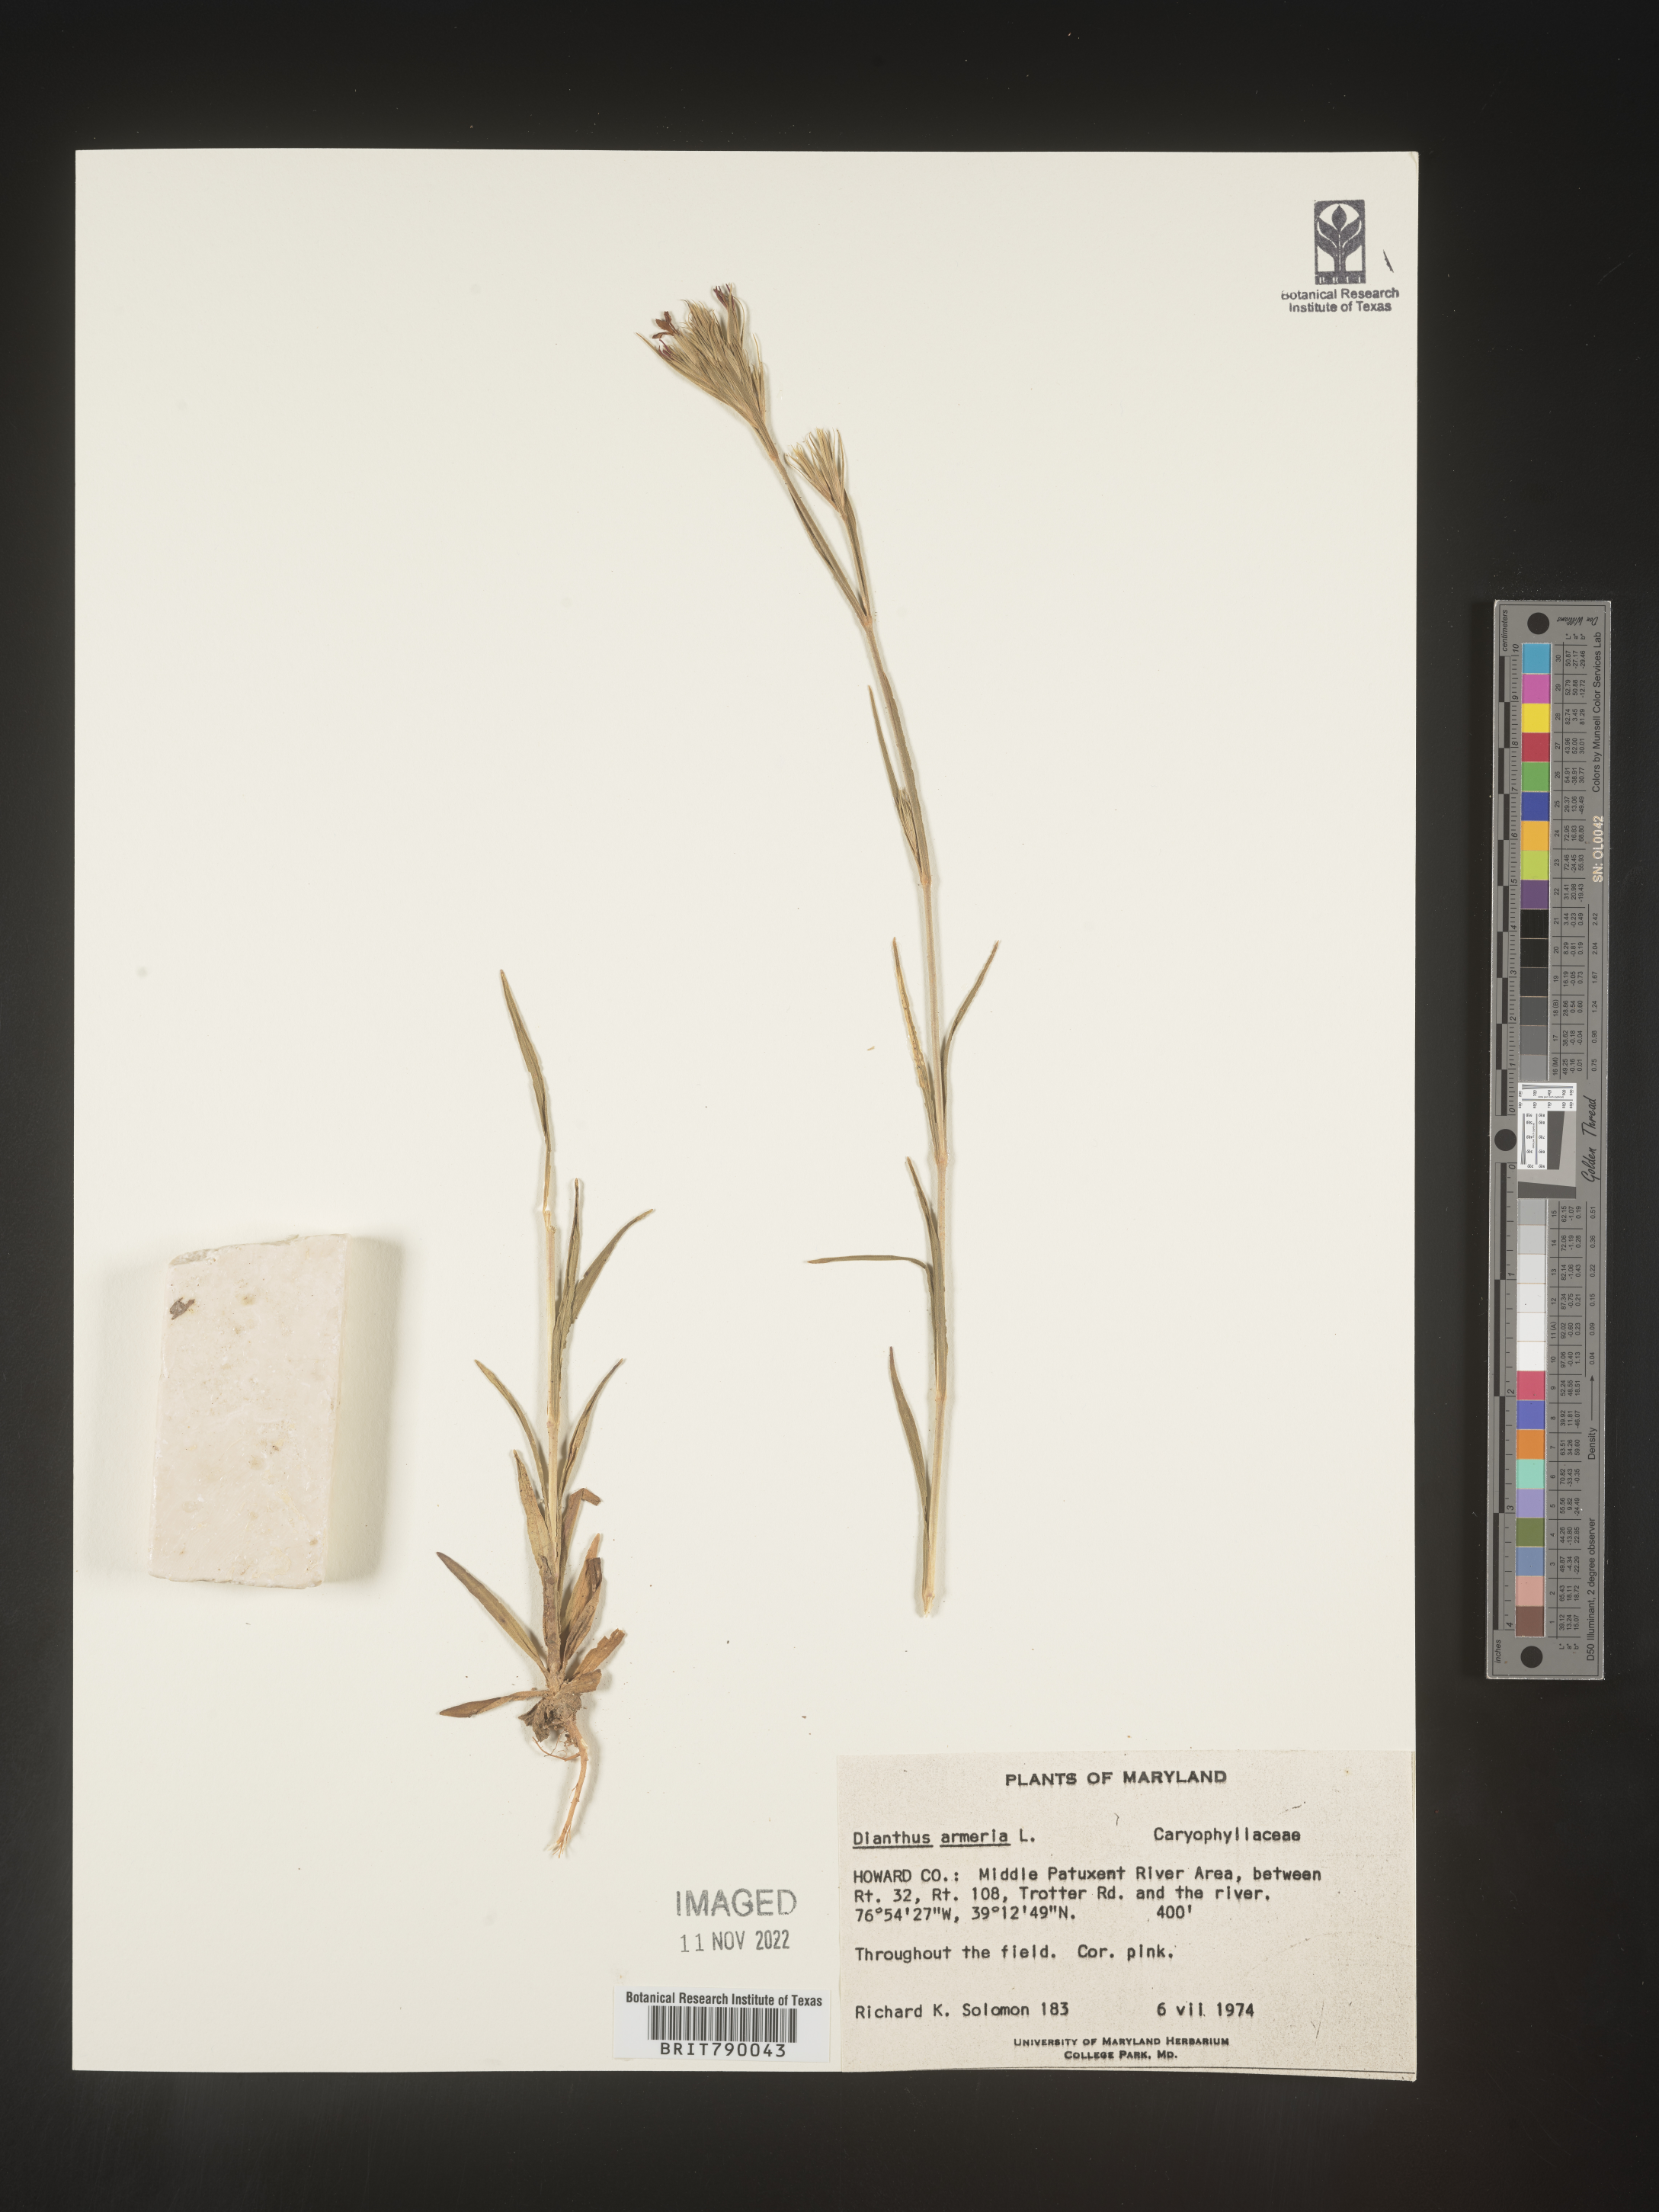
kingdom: Plantae
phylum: Tracheophyta
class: Magnoliopsida
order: Caryophyllales
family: Caryophyllaceae
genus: Dianthus
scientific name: Dianthus armeria
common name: Deptford pink
